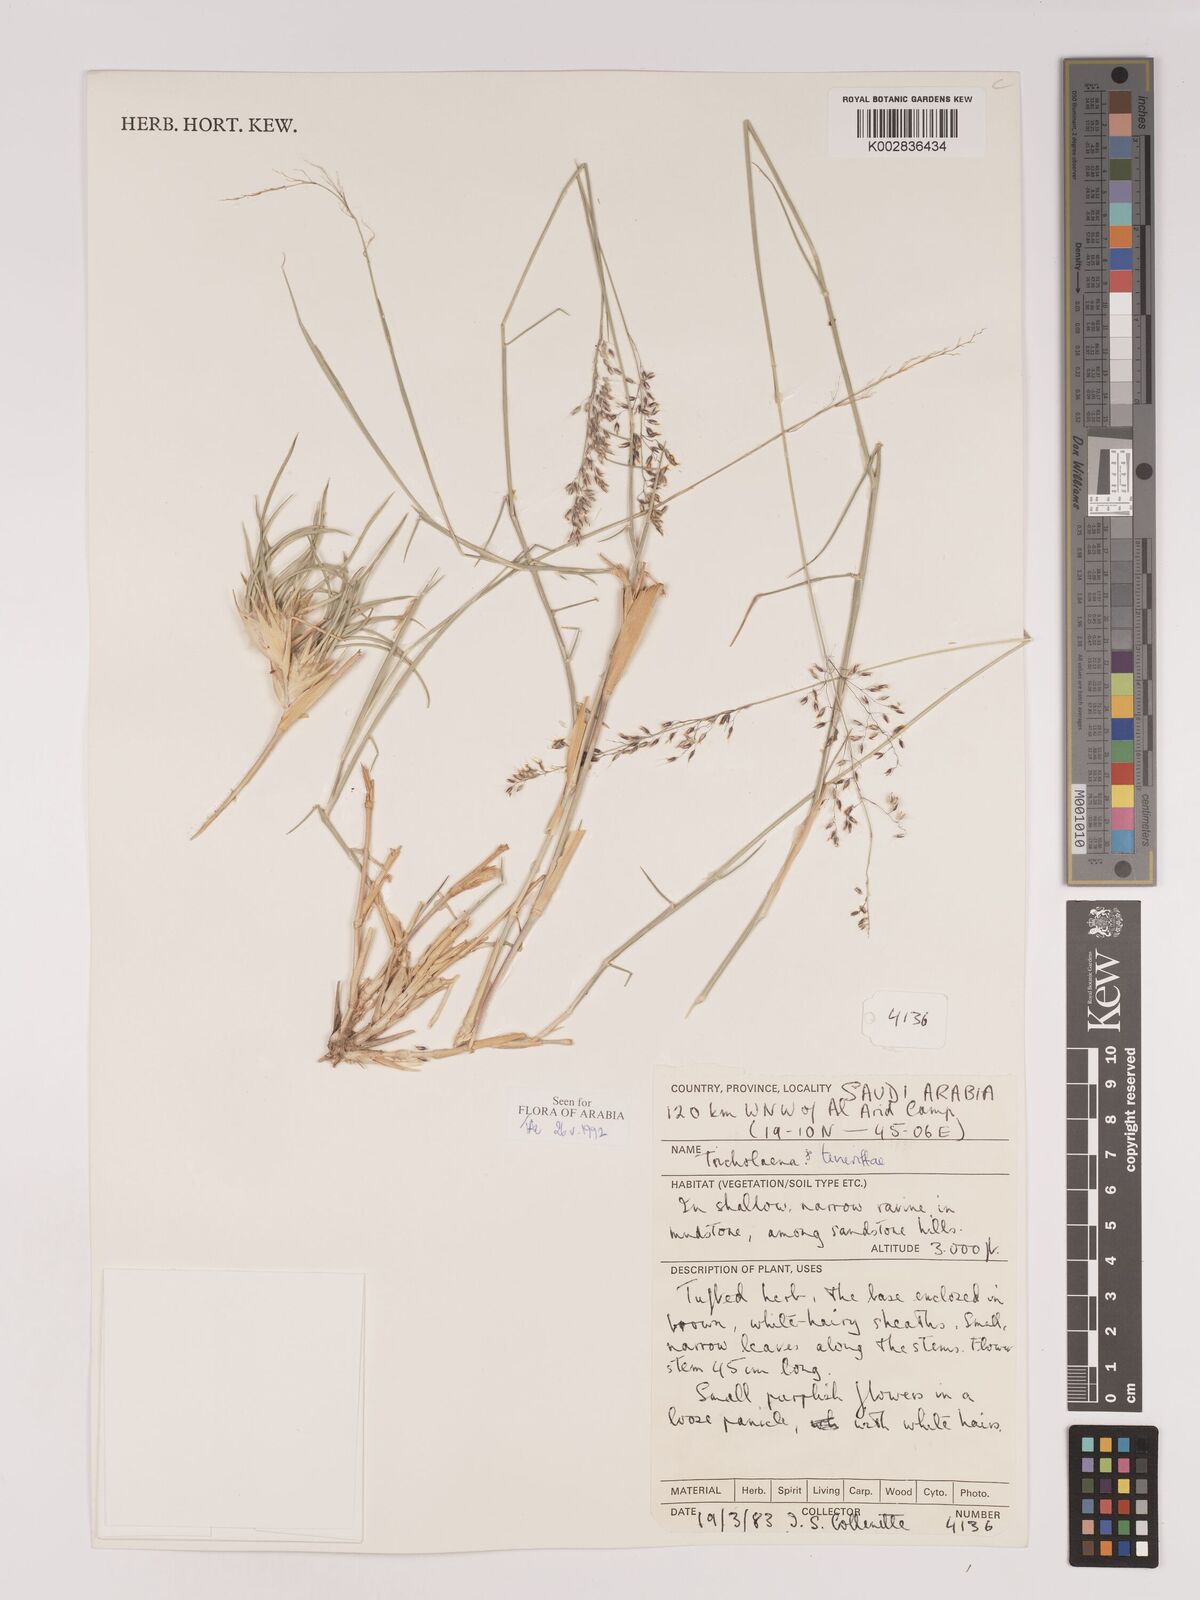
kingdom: Plantae
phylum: Tracheophyta
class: Liliopsida
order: Poales
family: Poaceae
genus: Tricholaena
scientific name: Tricholaena teneriffae
